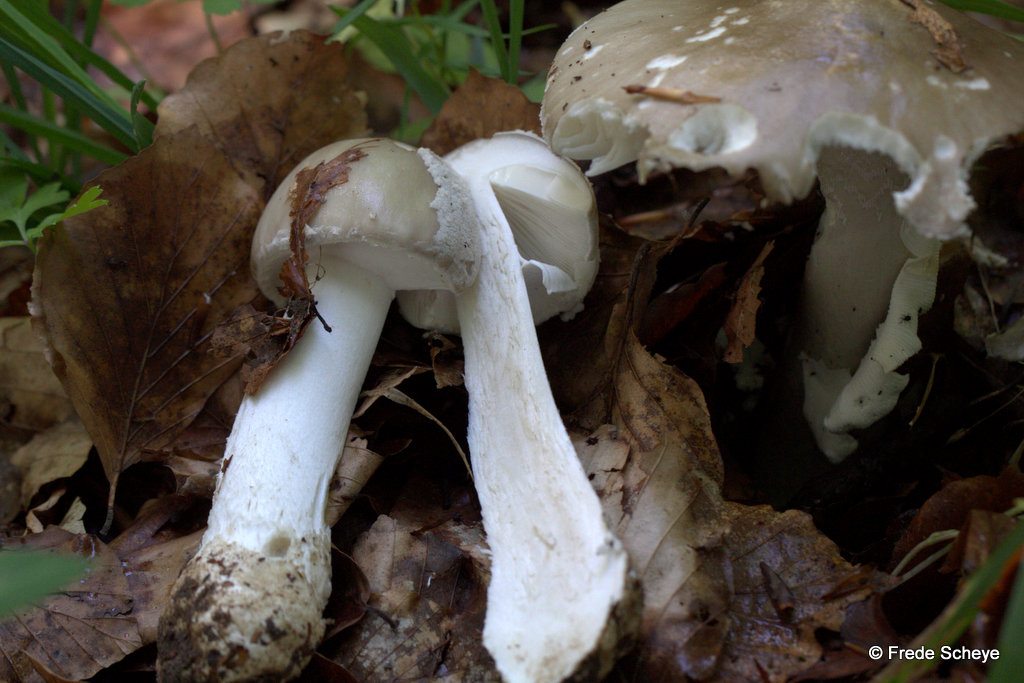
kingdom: Fungi
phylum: Basidiomycota
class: Agaricomycetes
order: Agaricales
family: Amanitaceae
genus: Amanita
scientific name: Amanita
